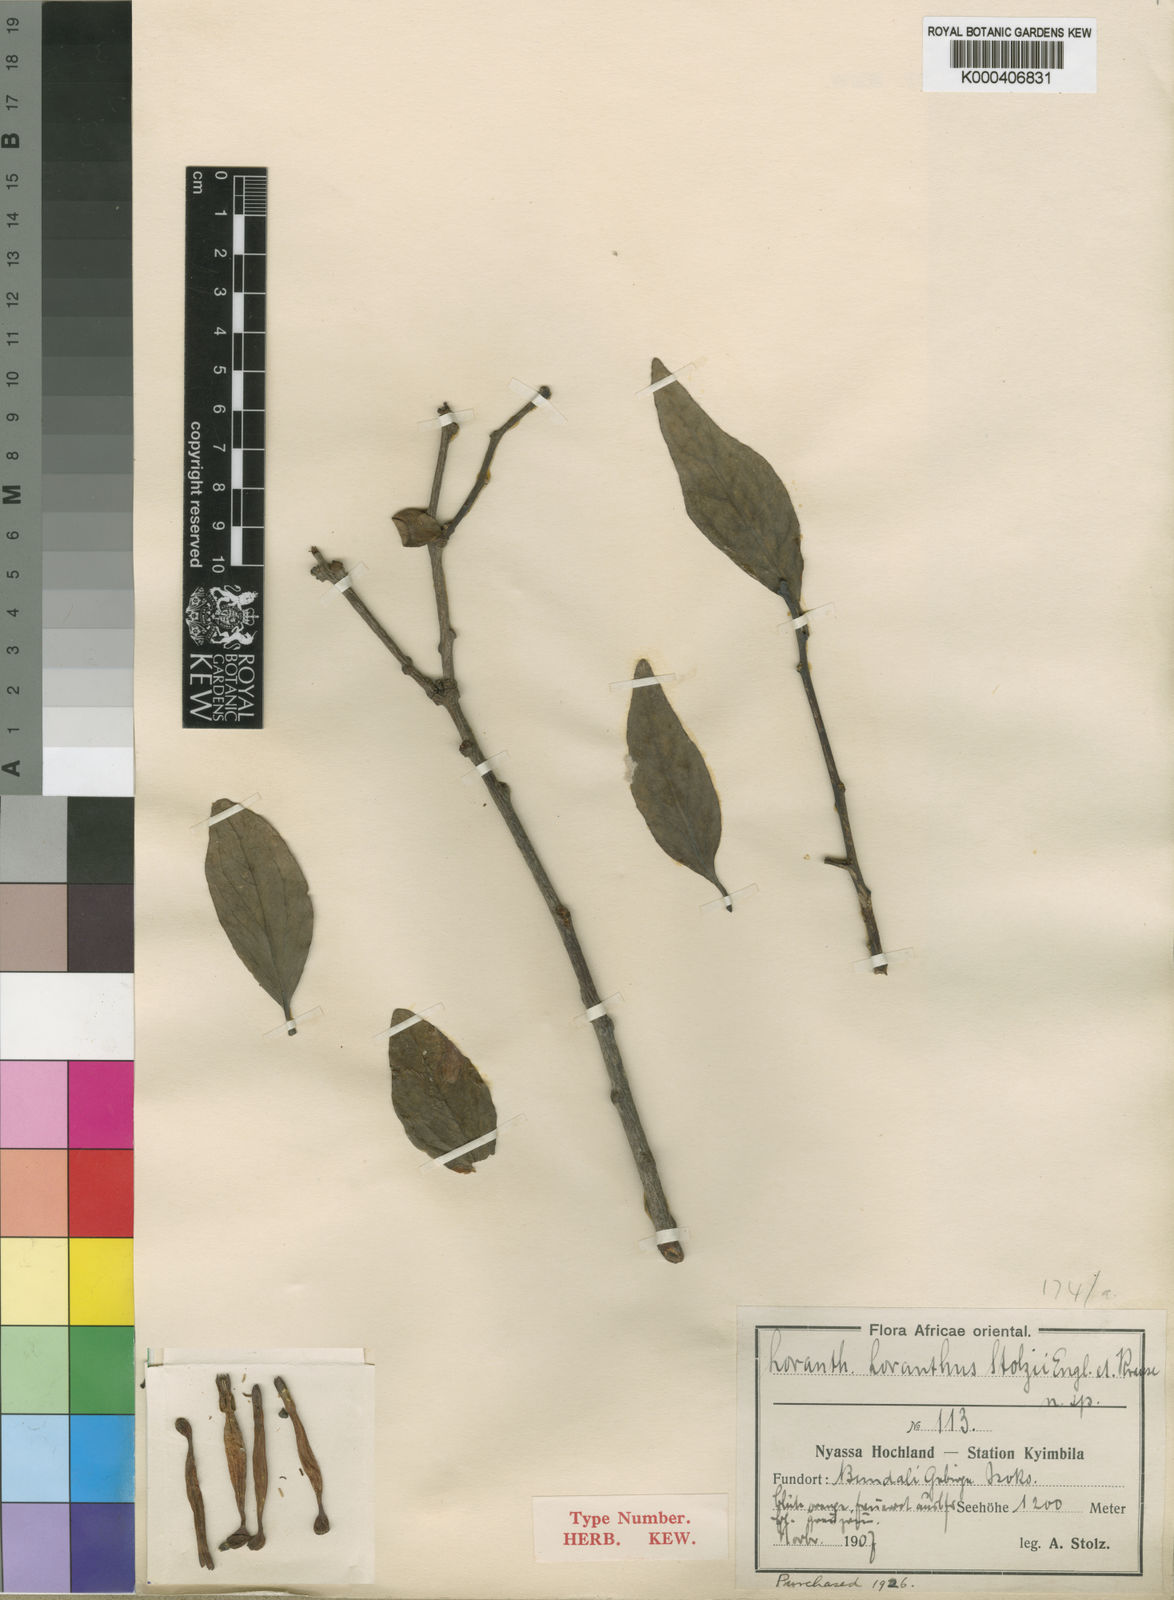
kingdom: Plantae
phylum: Tracheophyta
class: Magnoliopsida
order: Santalales
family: Loranthaceae
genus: Agelanthus
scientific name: Agelanthus nyasicus
